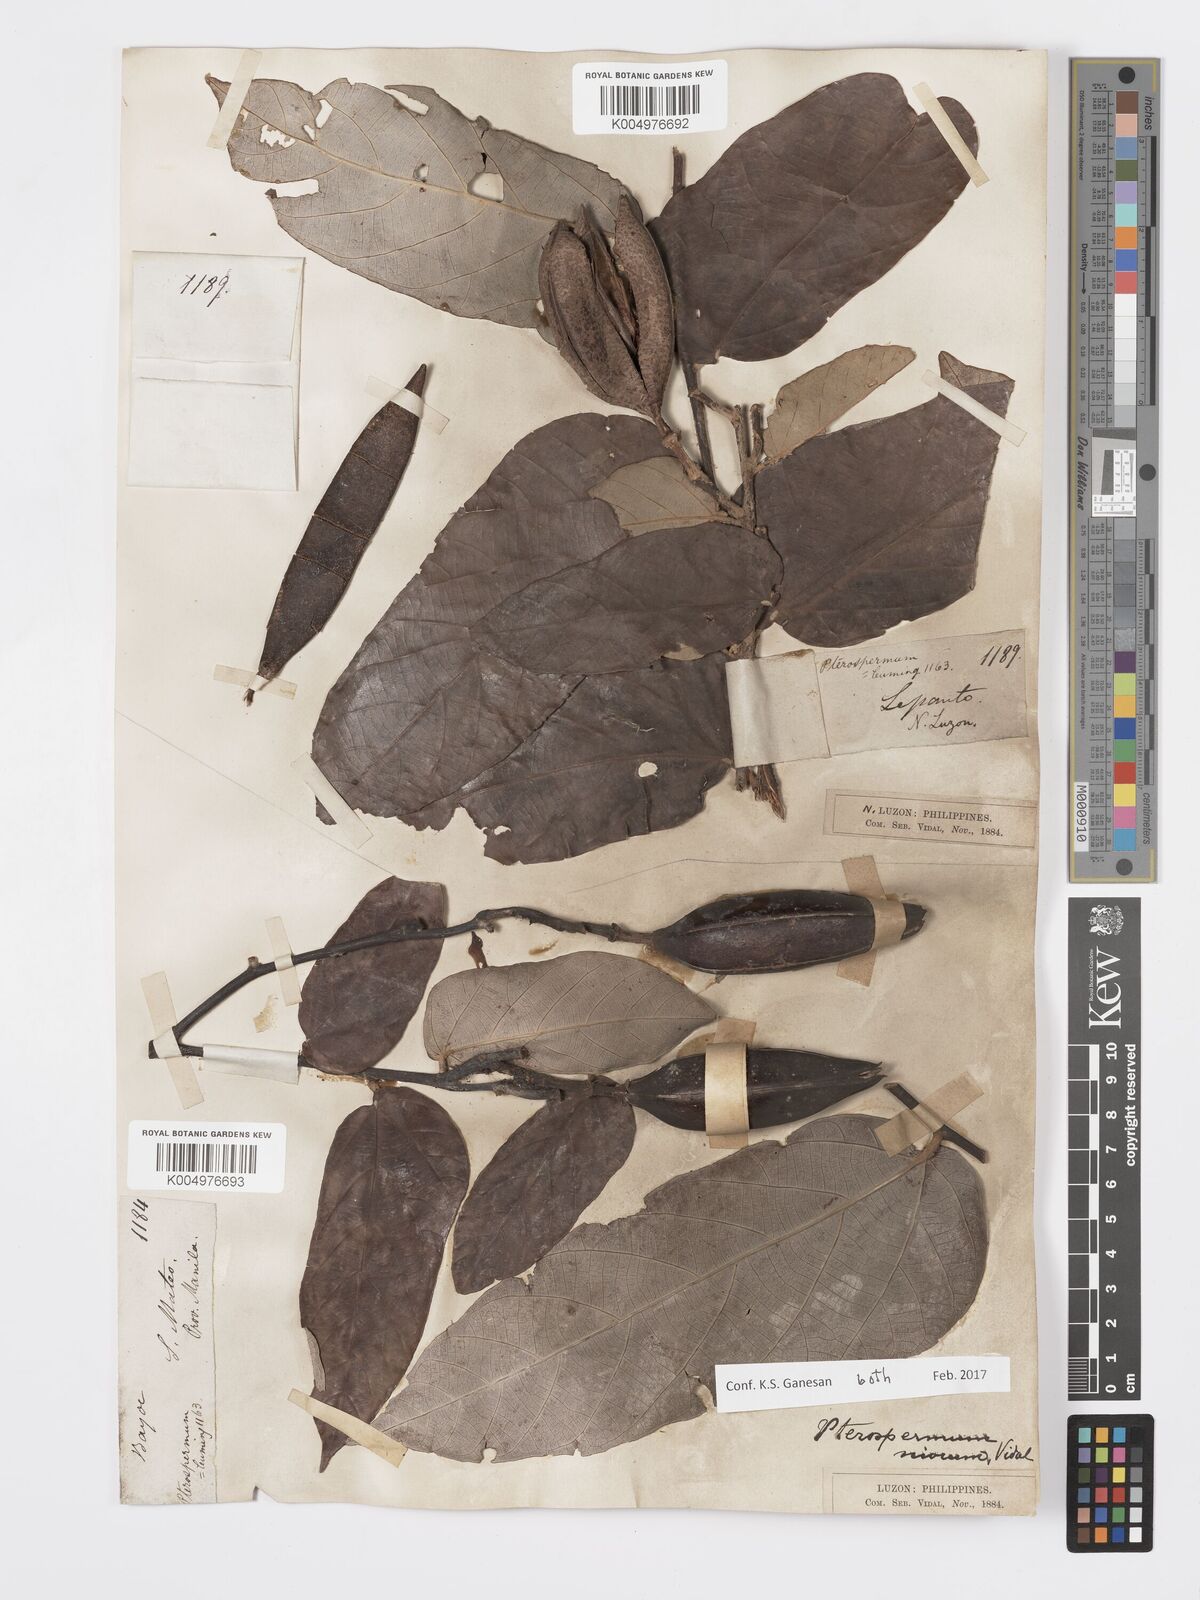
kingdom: Plantae
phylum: Tracheophyta
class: Magnoliopsida
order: Malvales
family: Malvaceae
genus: Pterospermum
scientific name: Pterospermum niveum
